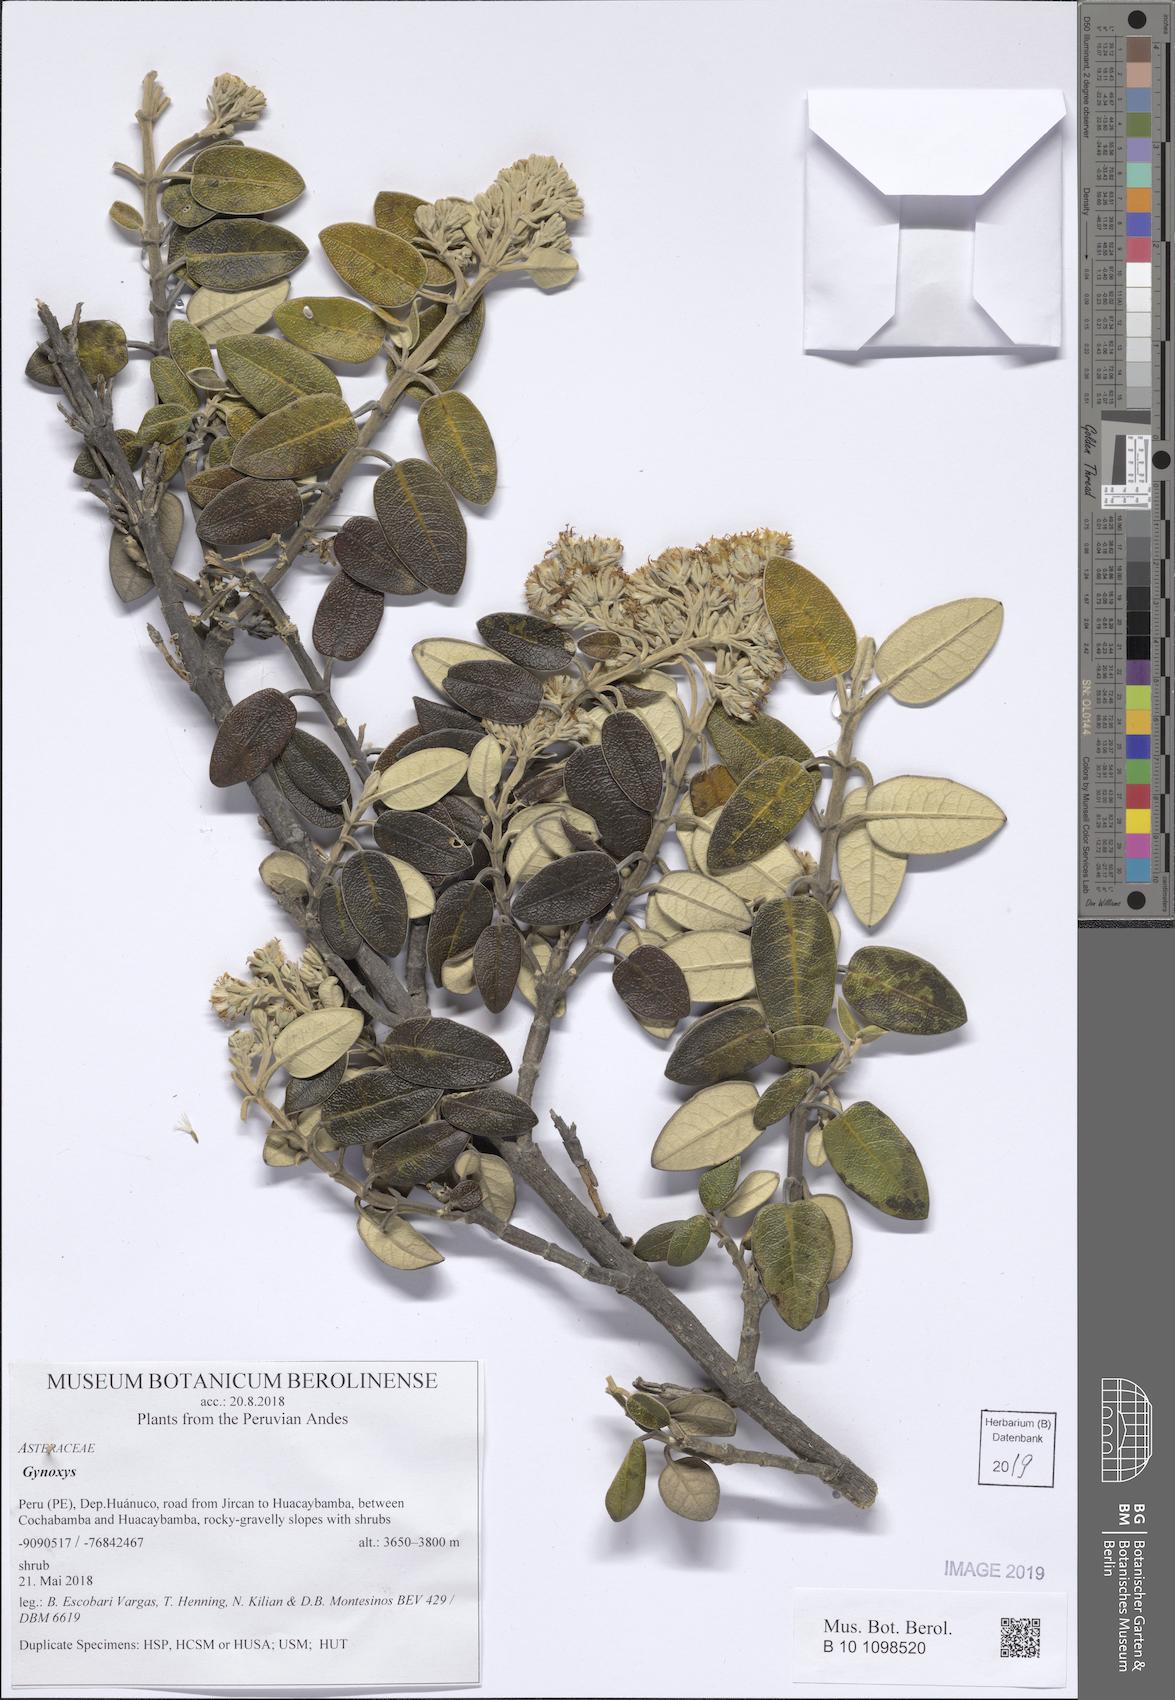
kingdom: Plantae
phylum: Tracheophyta
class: Magnoliopsida
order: Asterales
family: Asteraceae
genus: Gynoxys
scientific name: Gynoxys
